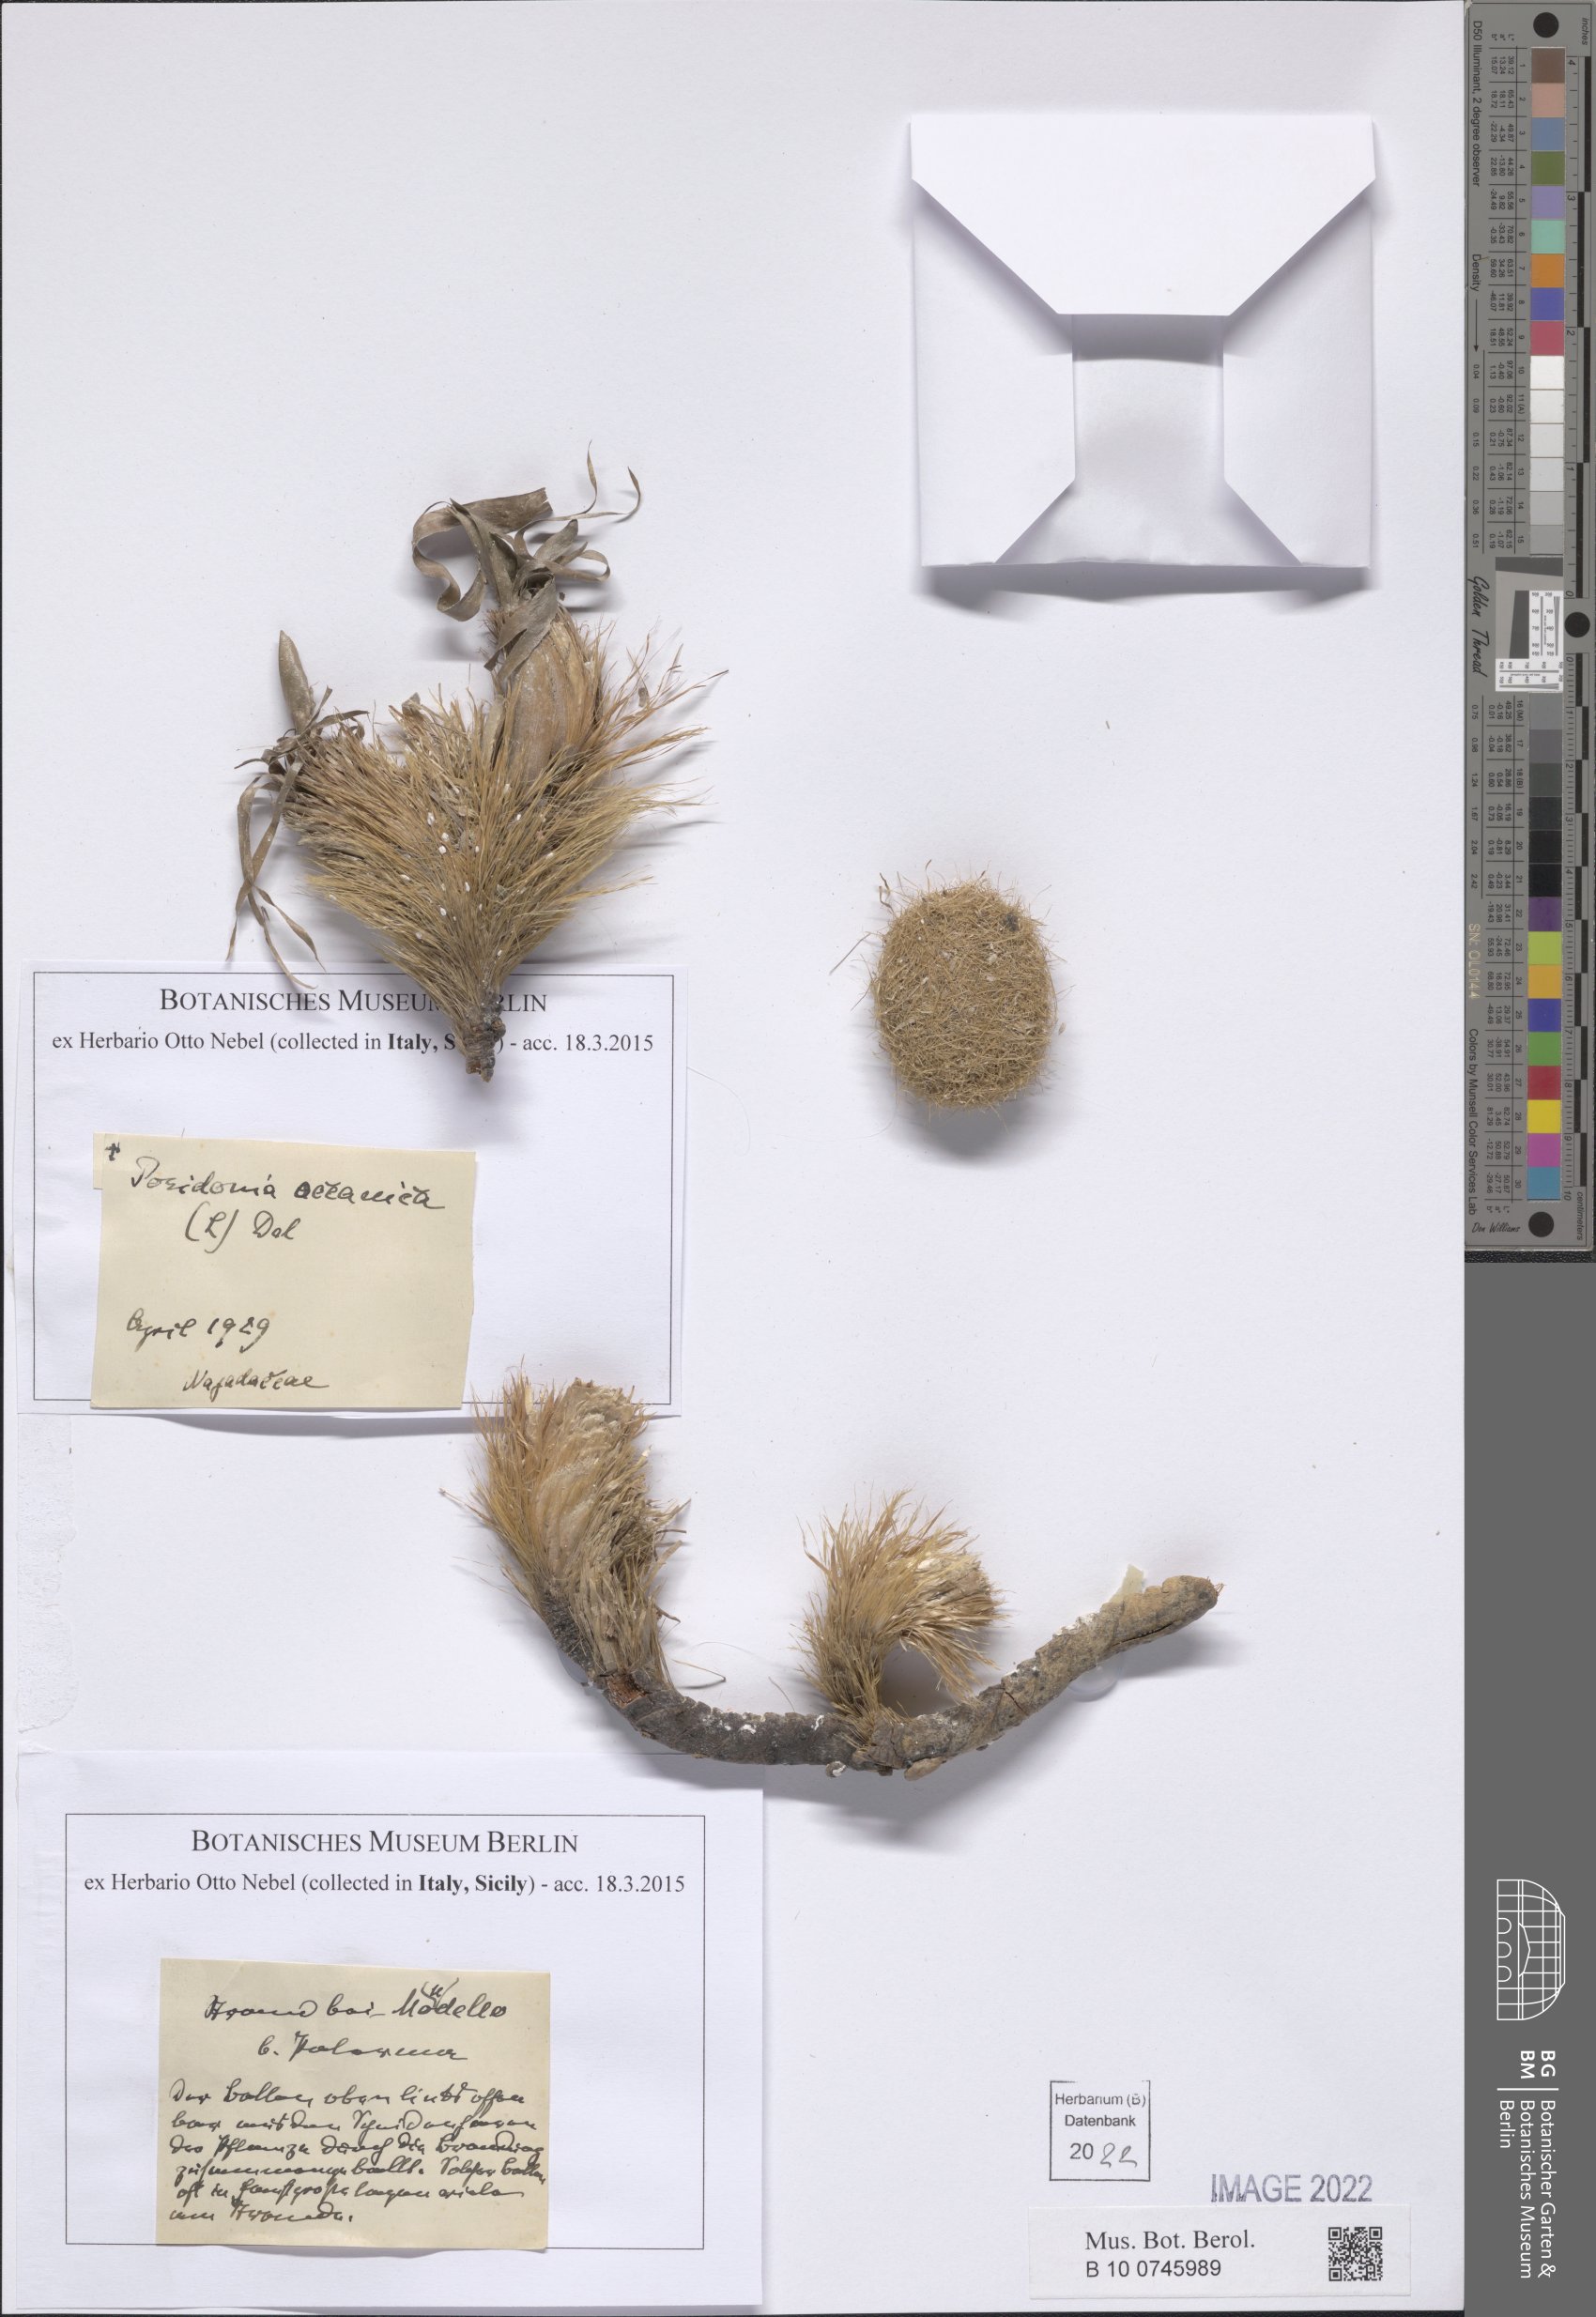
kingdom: Plantae
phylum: Tracheophyta
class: Liliopsida
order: Alismatales
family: Posidoniaceae
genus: Posidonia
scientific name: Posidonia oceanica
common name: Mediterranean tapeweed
